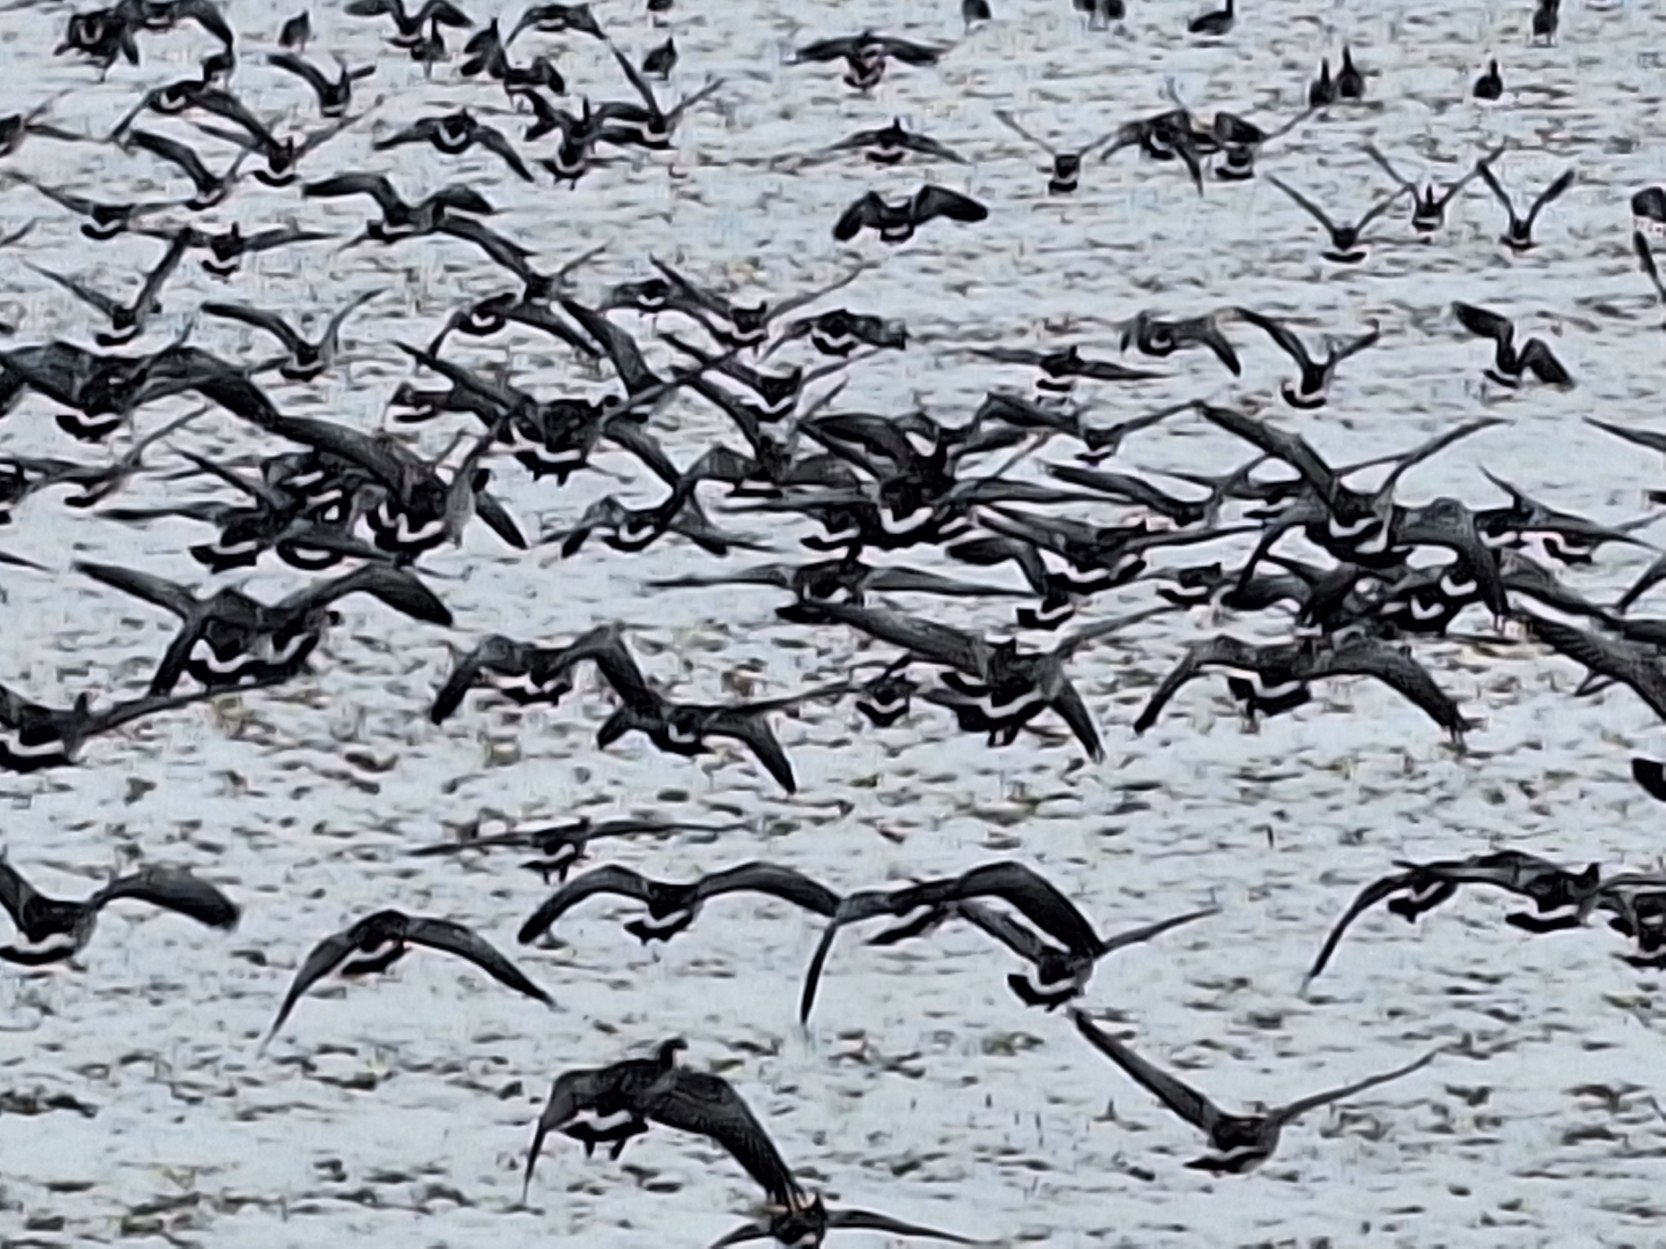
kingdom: Animalia
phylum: Chordata
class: Aves
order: Anseriformes
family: Anatidae
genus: Branta
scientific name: Branta leucopsis
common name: Bramgås
